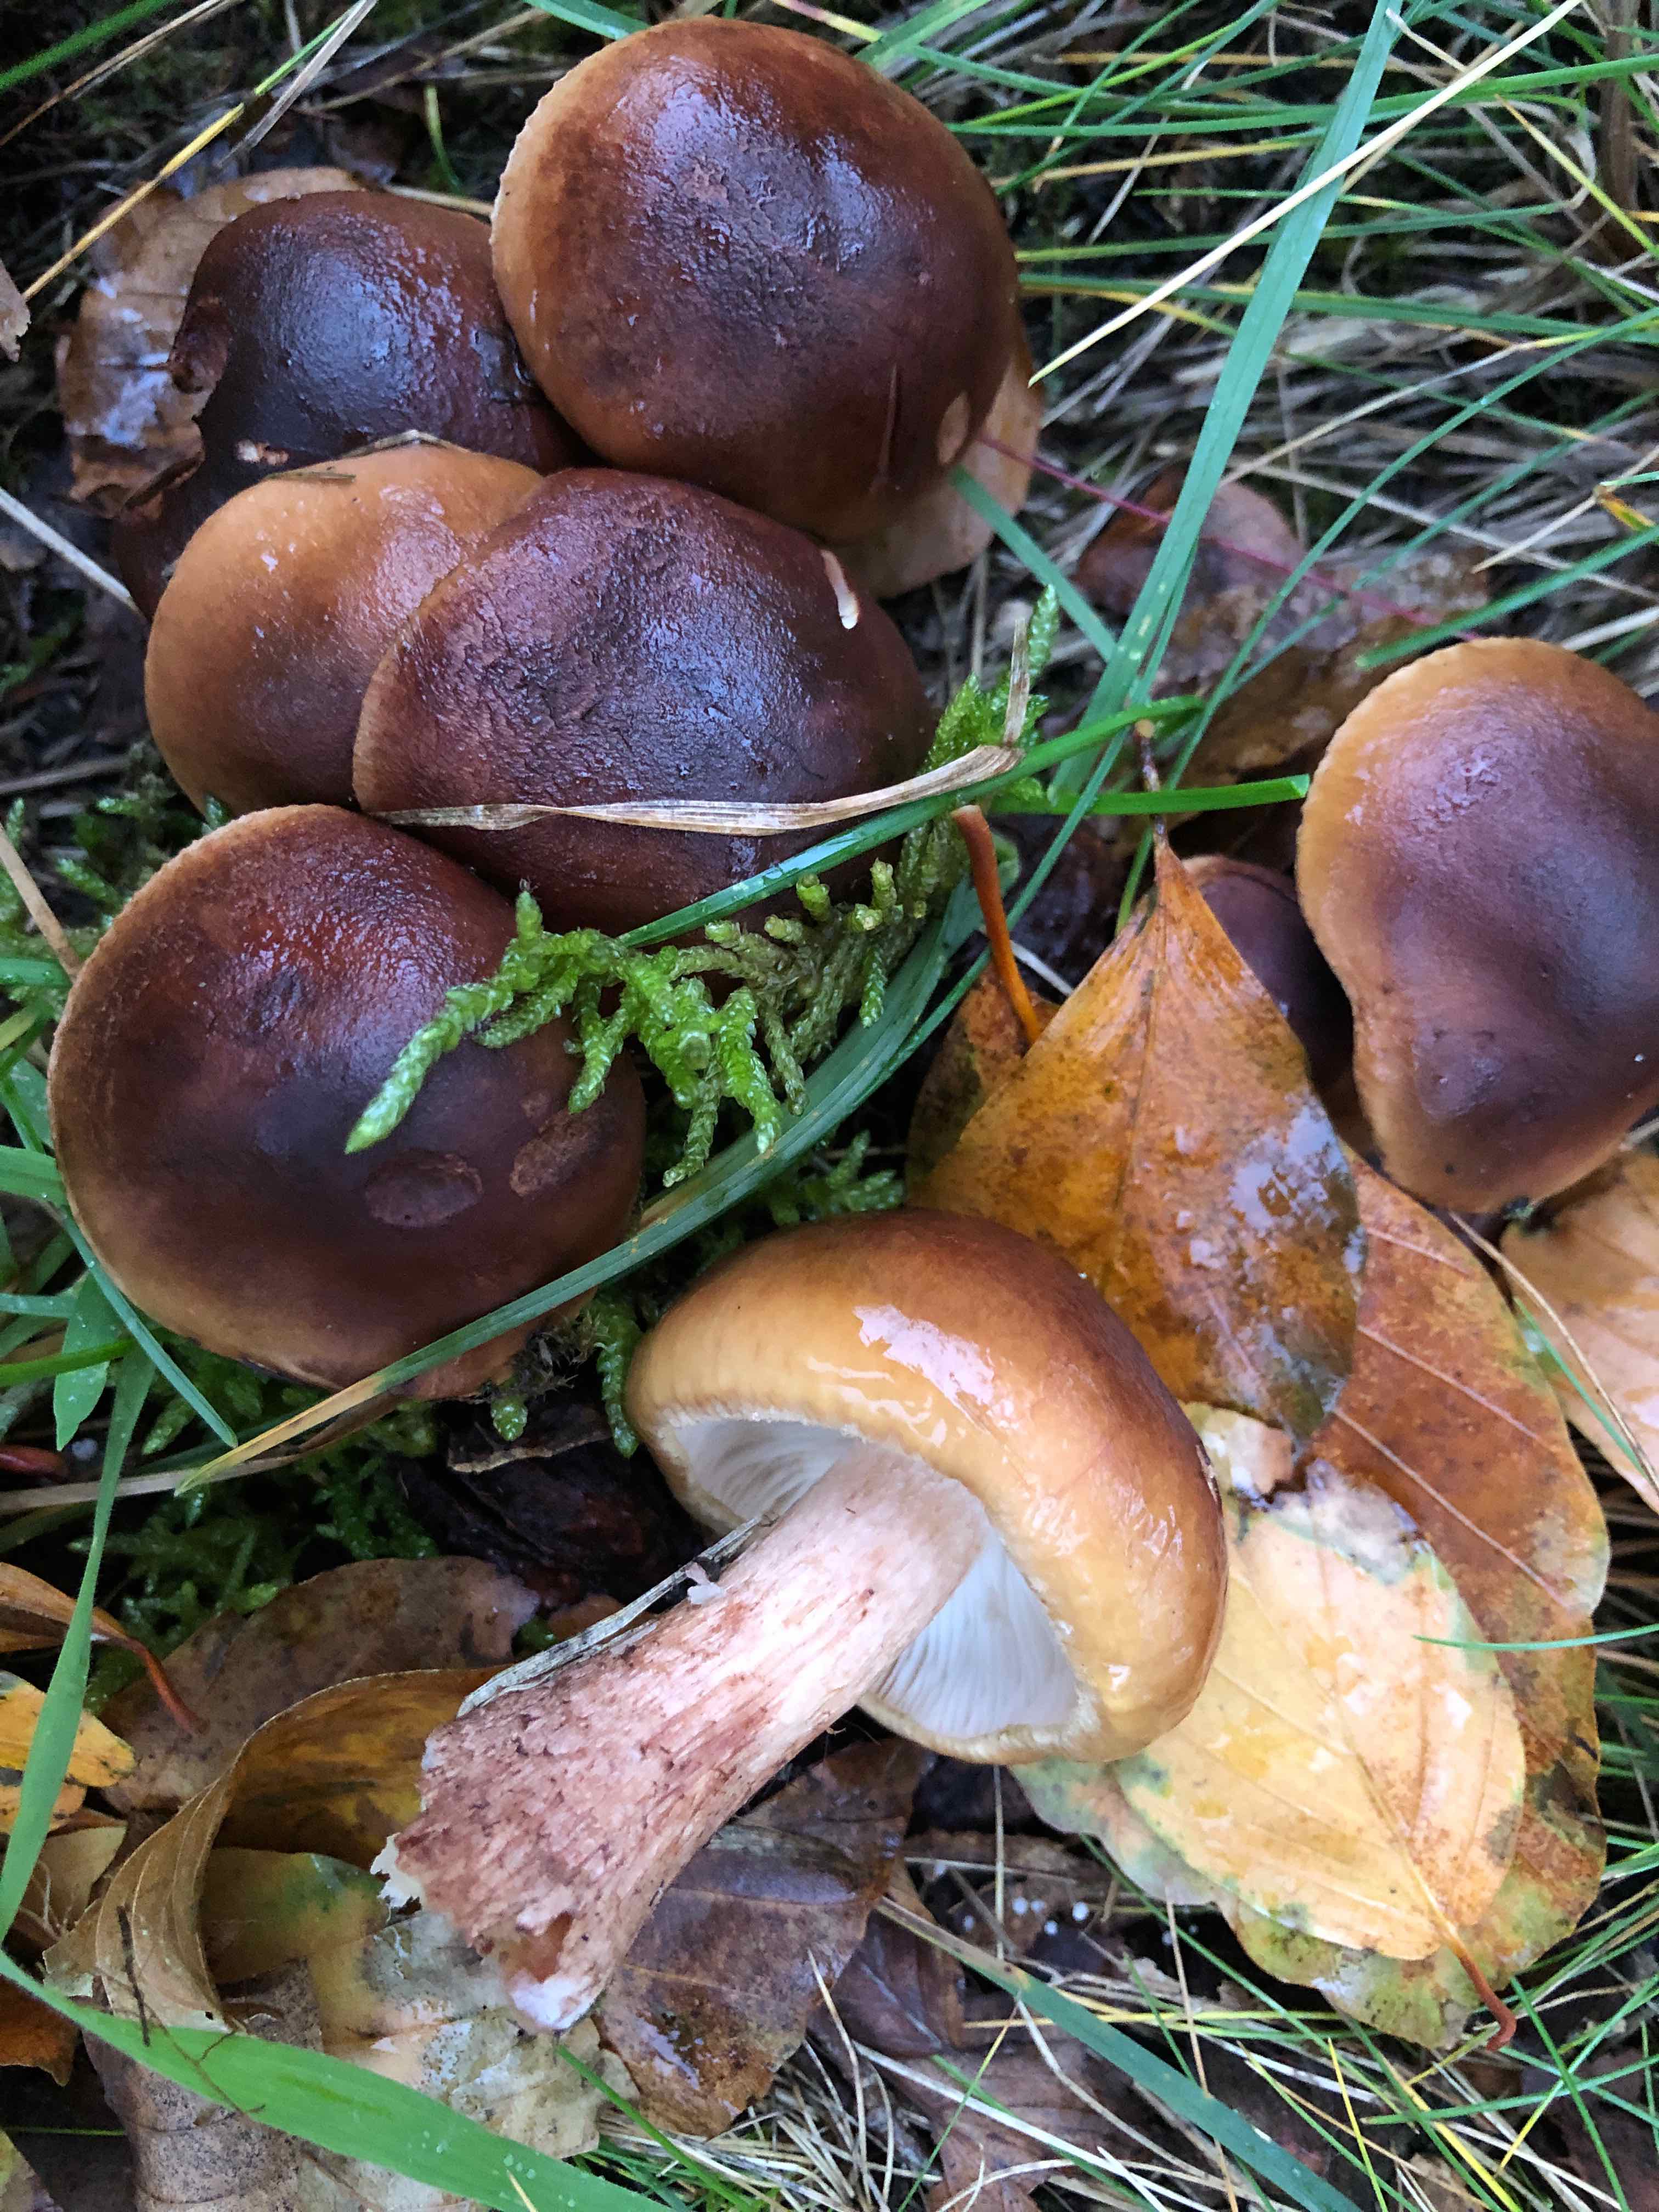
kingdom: Fungi
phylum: Basidiomycota
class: Agaricomycetes
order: Agaricales
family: Tricholomataceae
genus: Tricholoma
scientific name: Tricholoma ustale
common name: sveden ridderhat
